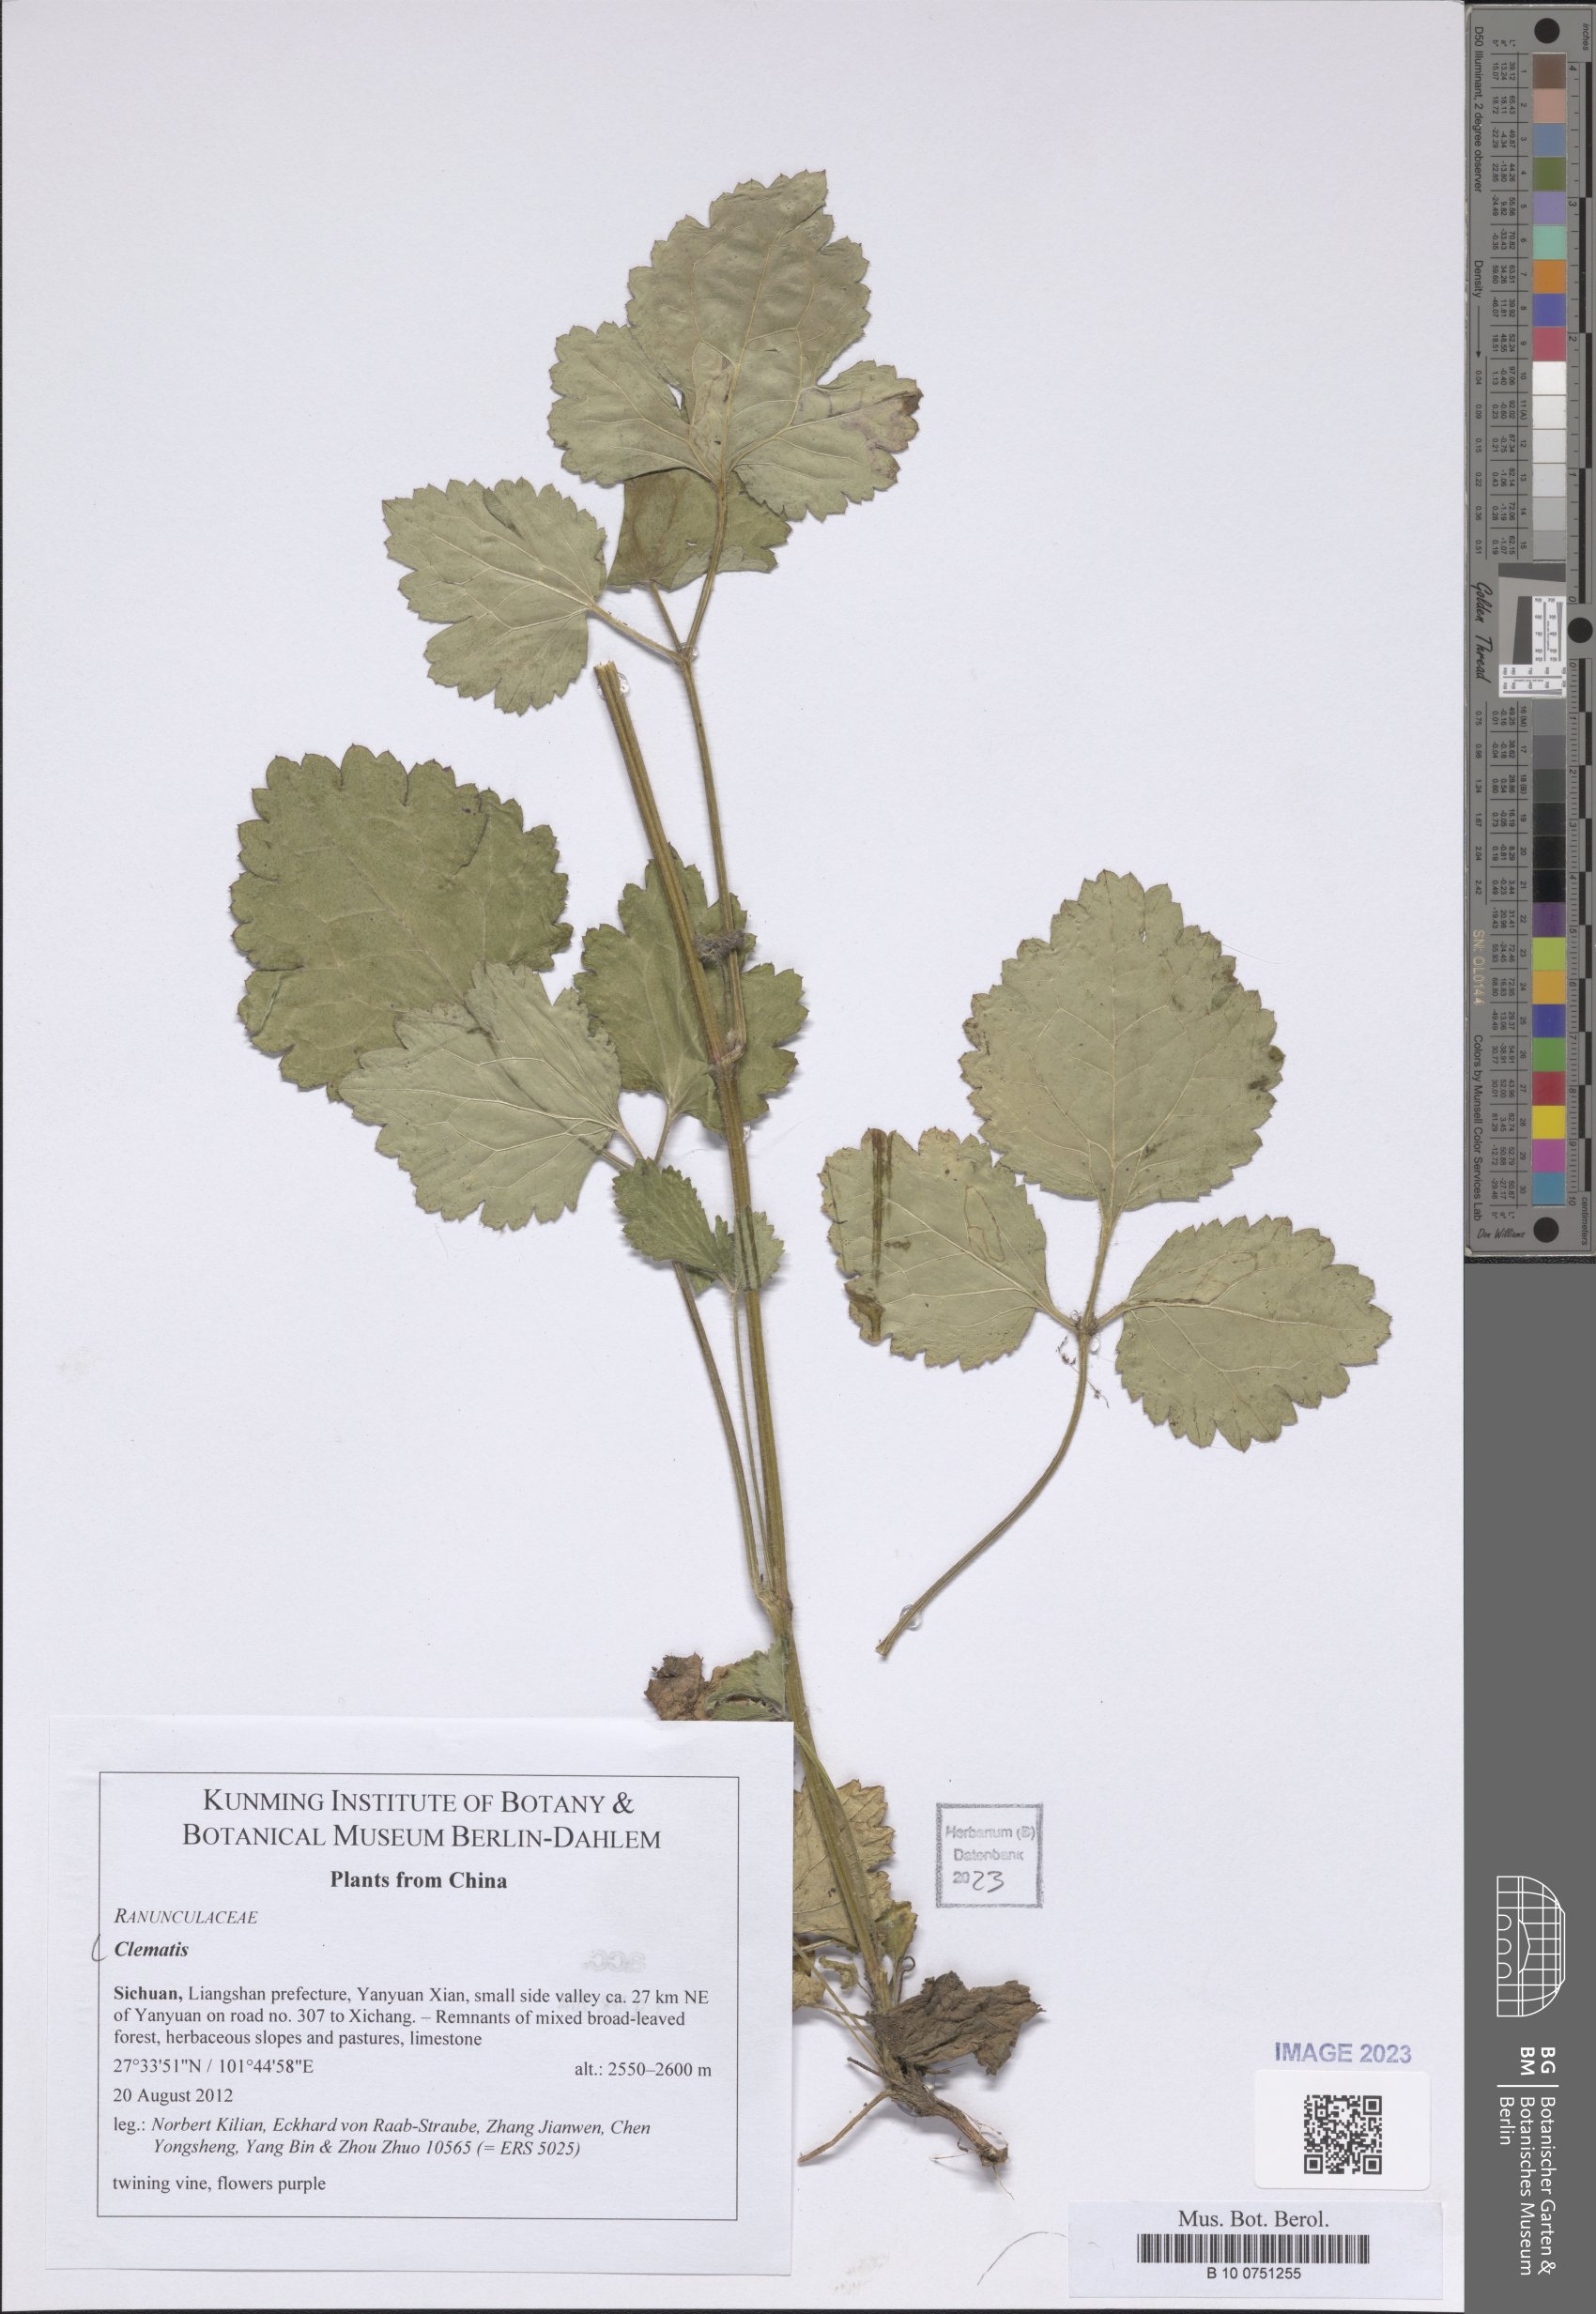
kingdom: Plantae
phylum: Tracheophyta
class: Magnoliopsida
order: Ranunculales
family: Ranunculaceae
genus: Clematis
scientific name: Clematis
